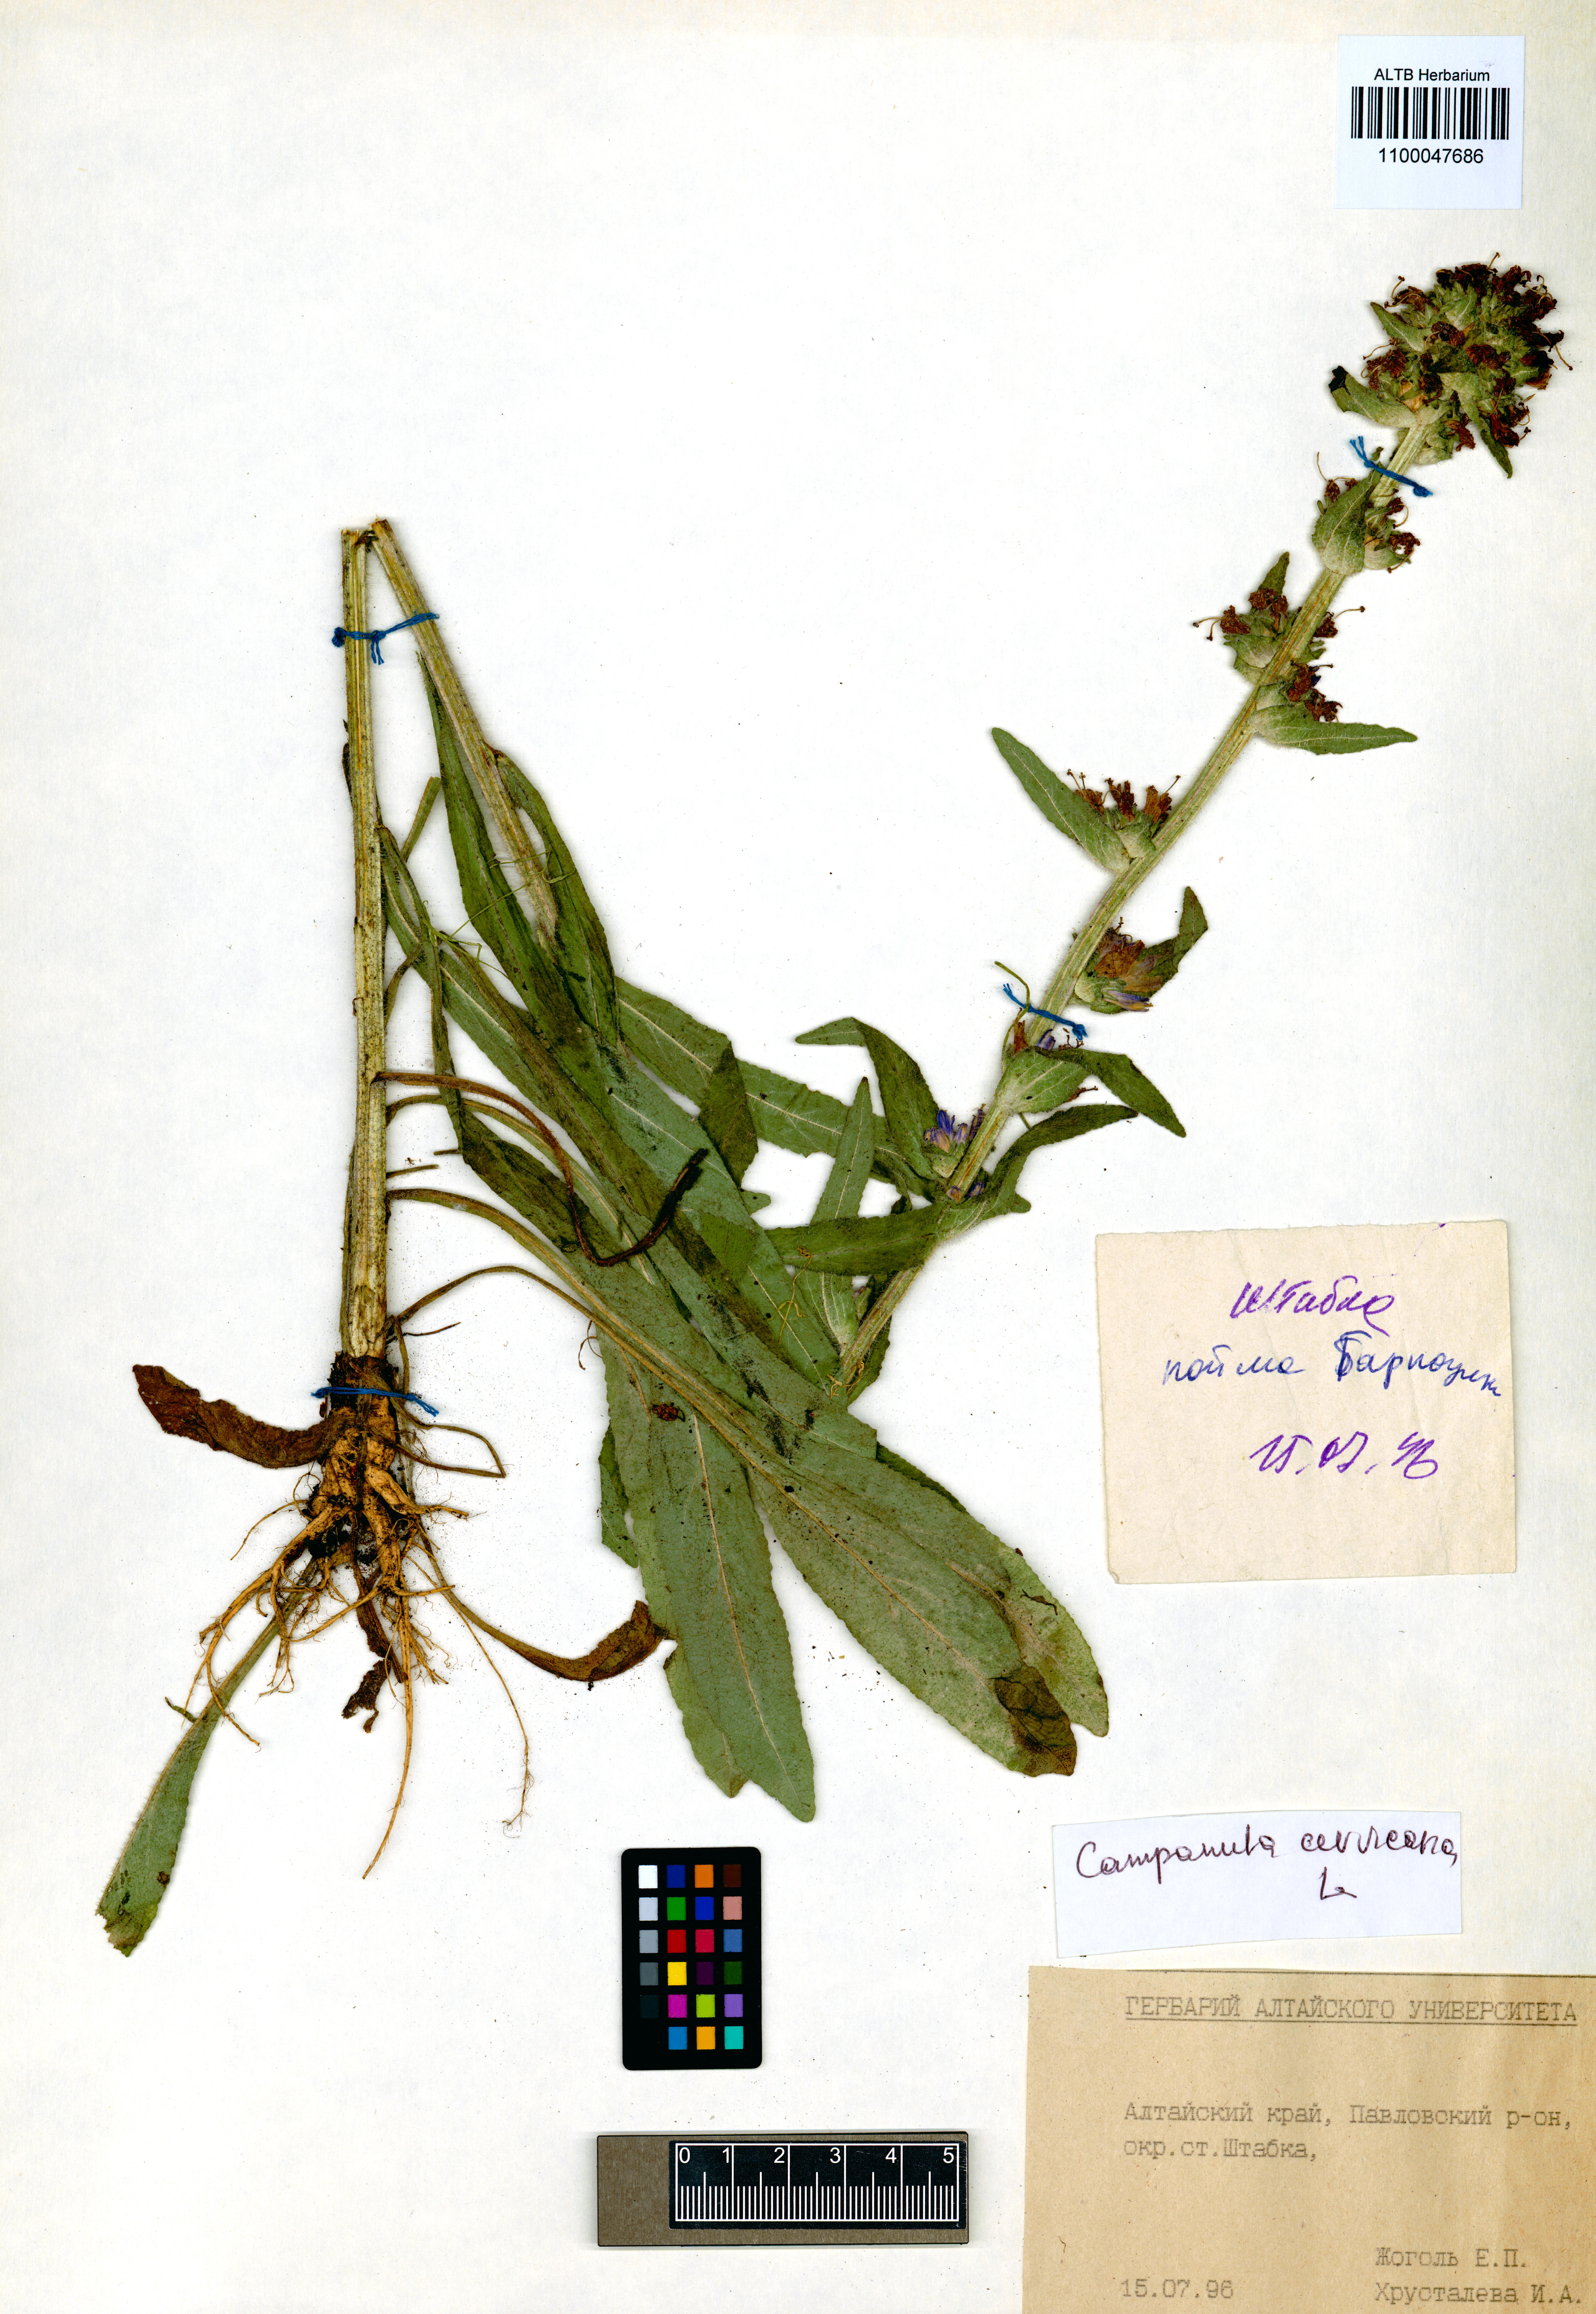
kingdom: Plantae
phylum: Tracheophyta
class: Magnoliopsida
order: Asterales
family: Campanulaceae
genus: Campanula
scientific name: Campanula cervicaria
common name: Bristly bellflower
